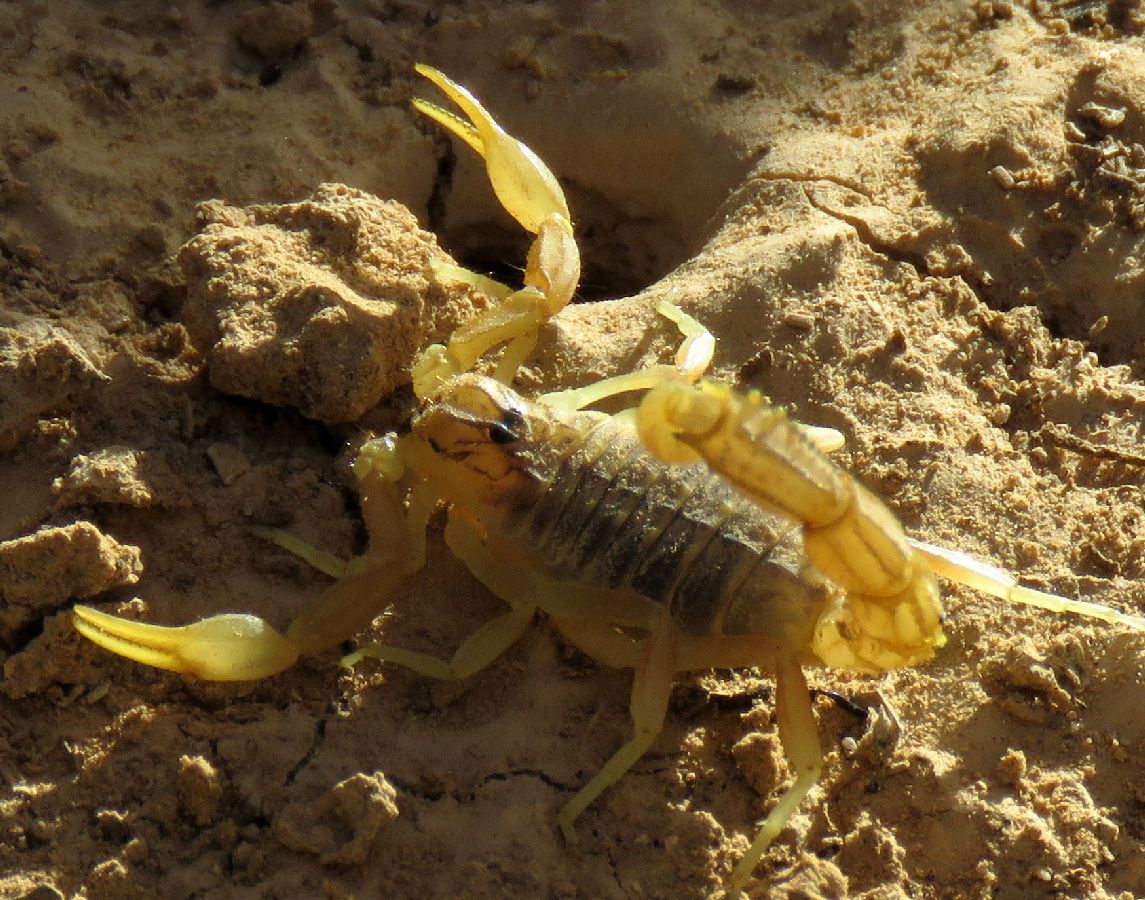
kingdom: Animalia
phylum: Arthropoda
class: Arachnida
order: Scorpiones
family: Buthidae
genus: Buthacus
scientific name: Buthacus leptochelys
